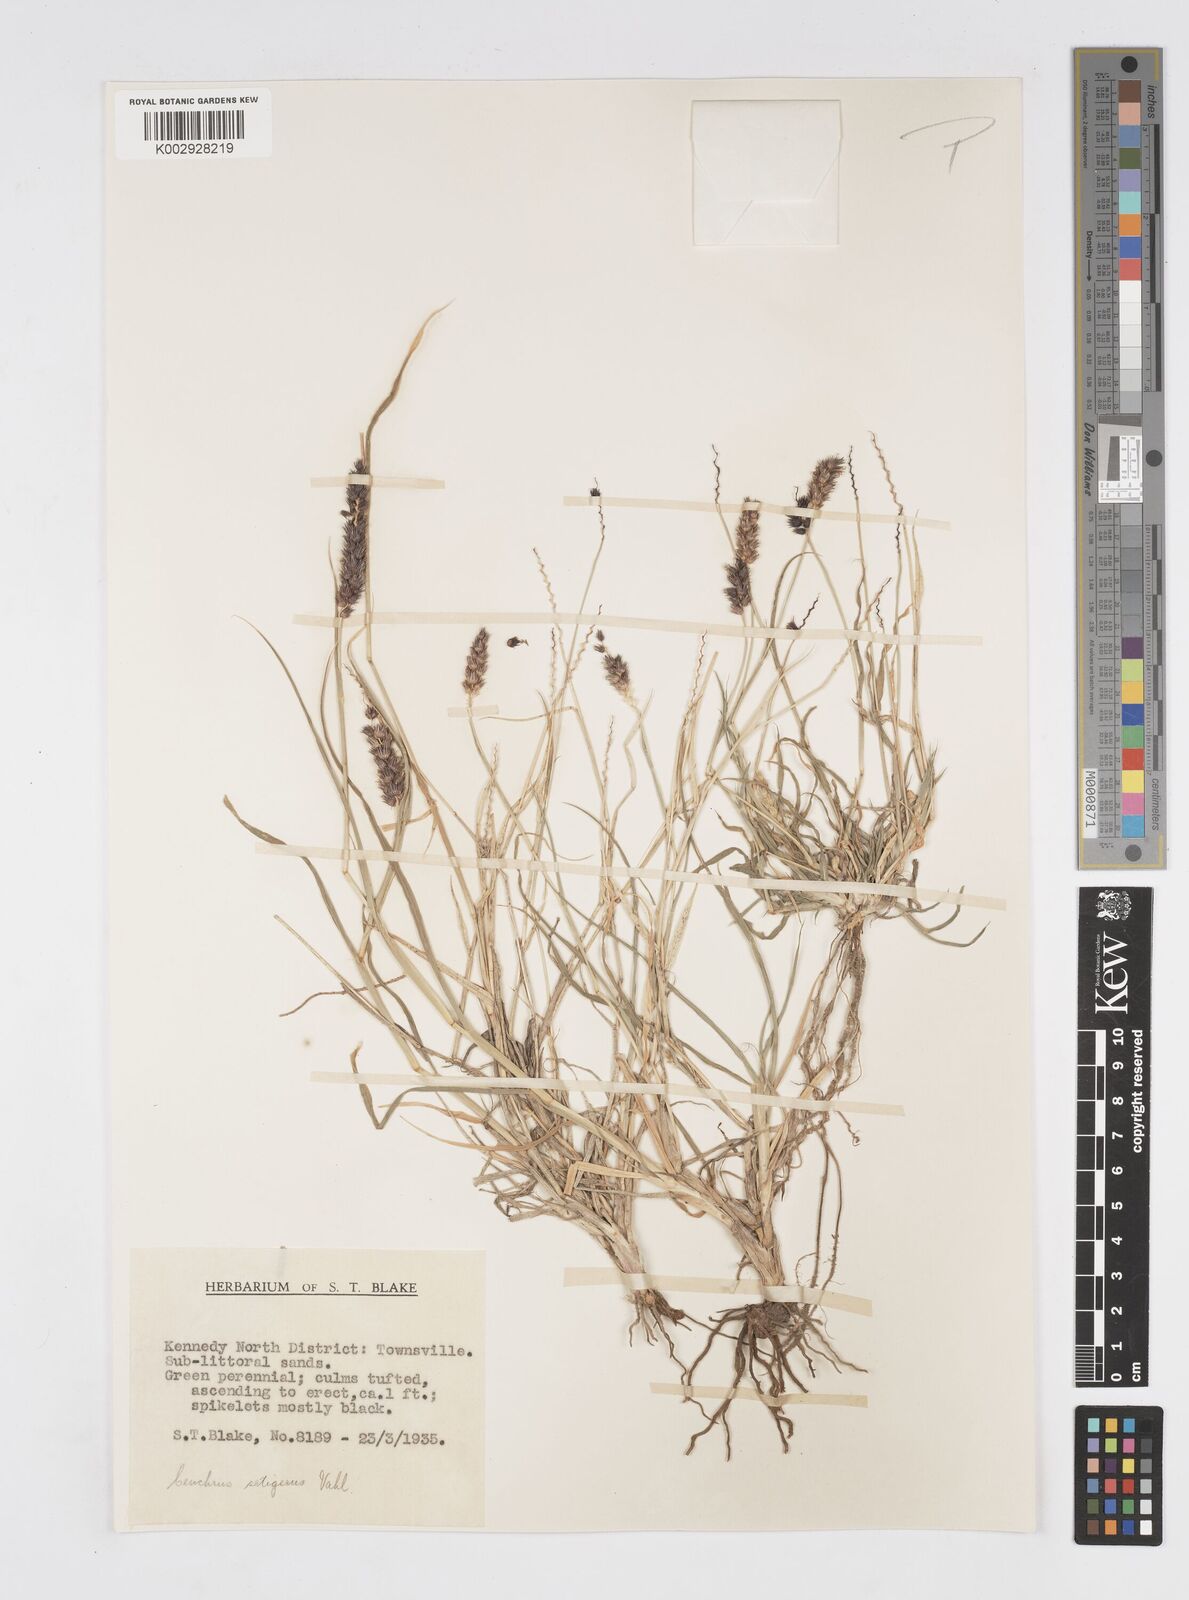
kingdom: Plantae
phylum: Tracheophyta
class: Liliopsida
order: Poales
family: Poaceae
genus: Cenchrus
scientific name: Cenchrus setigerus
